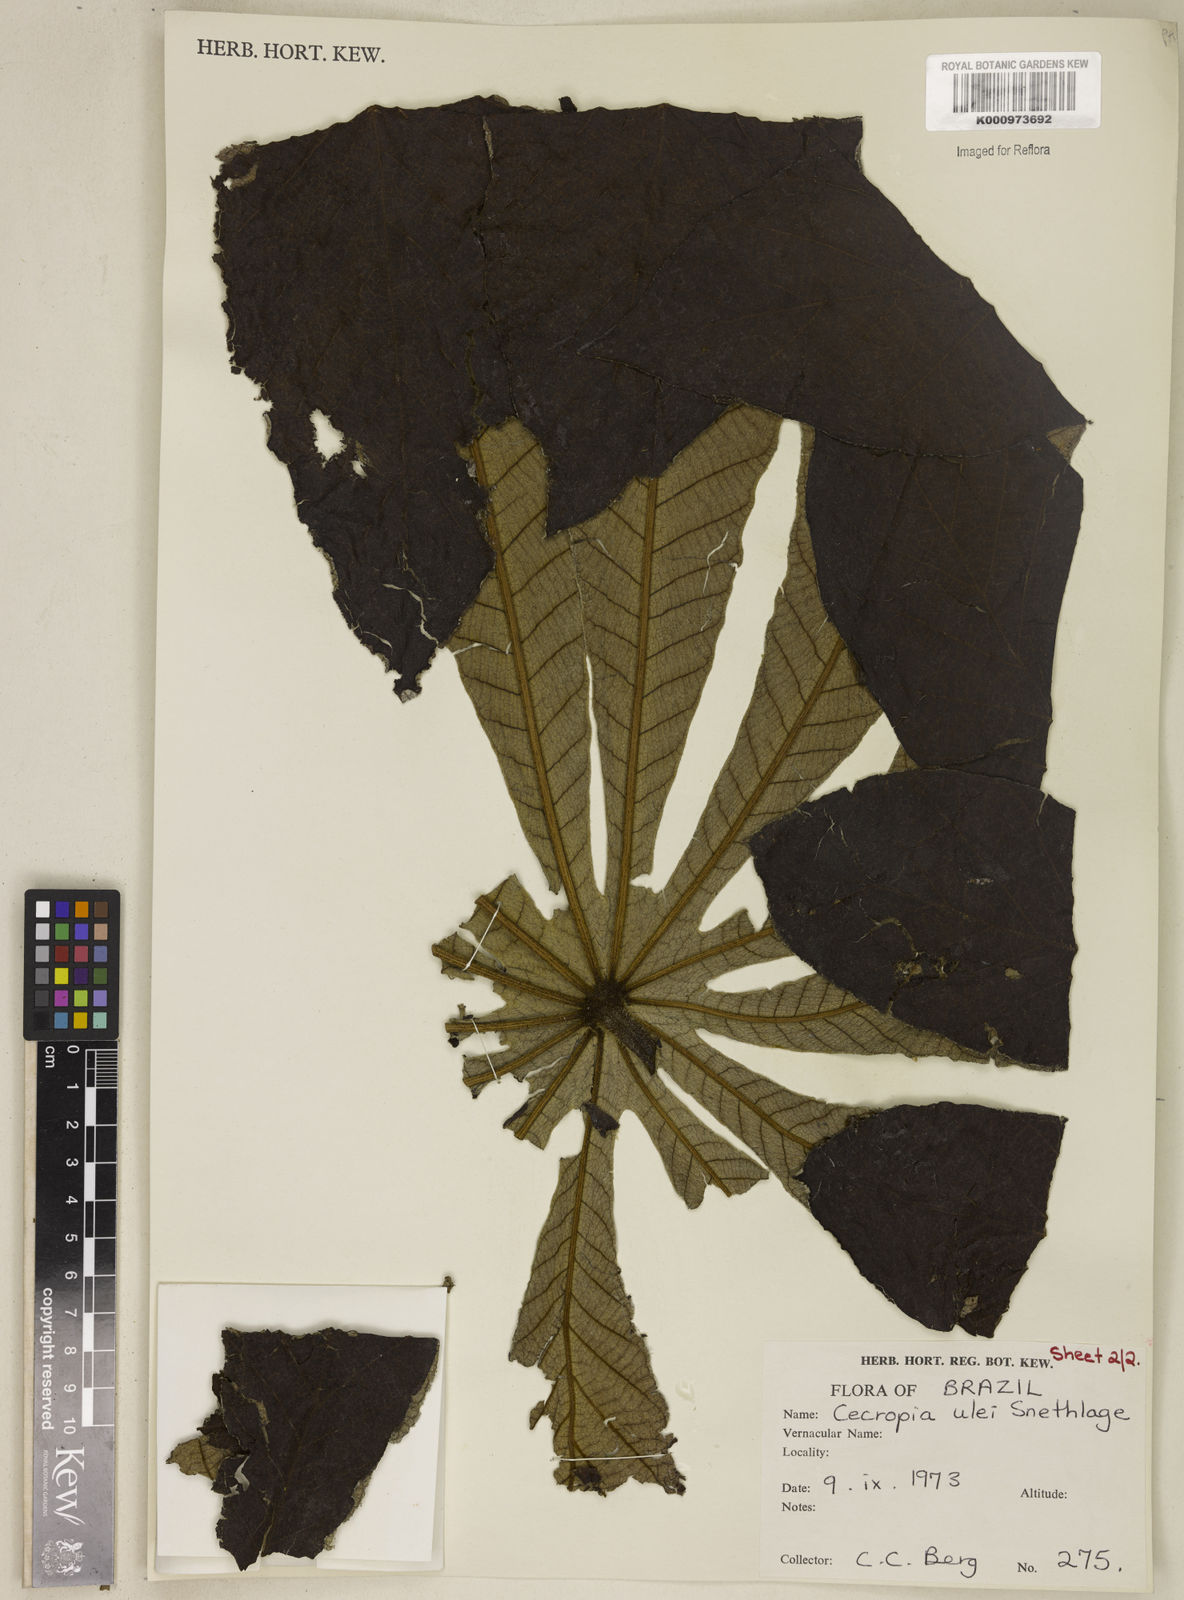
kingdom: Plantae
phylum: Tracheophyta
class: Magnoliopsida
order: Rosales
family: Urticaceae
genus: Cecropia
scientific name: Cecropia ulei
